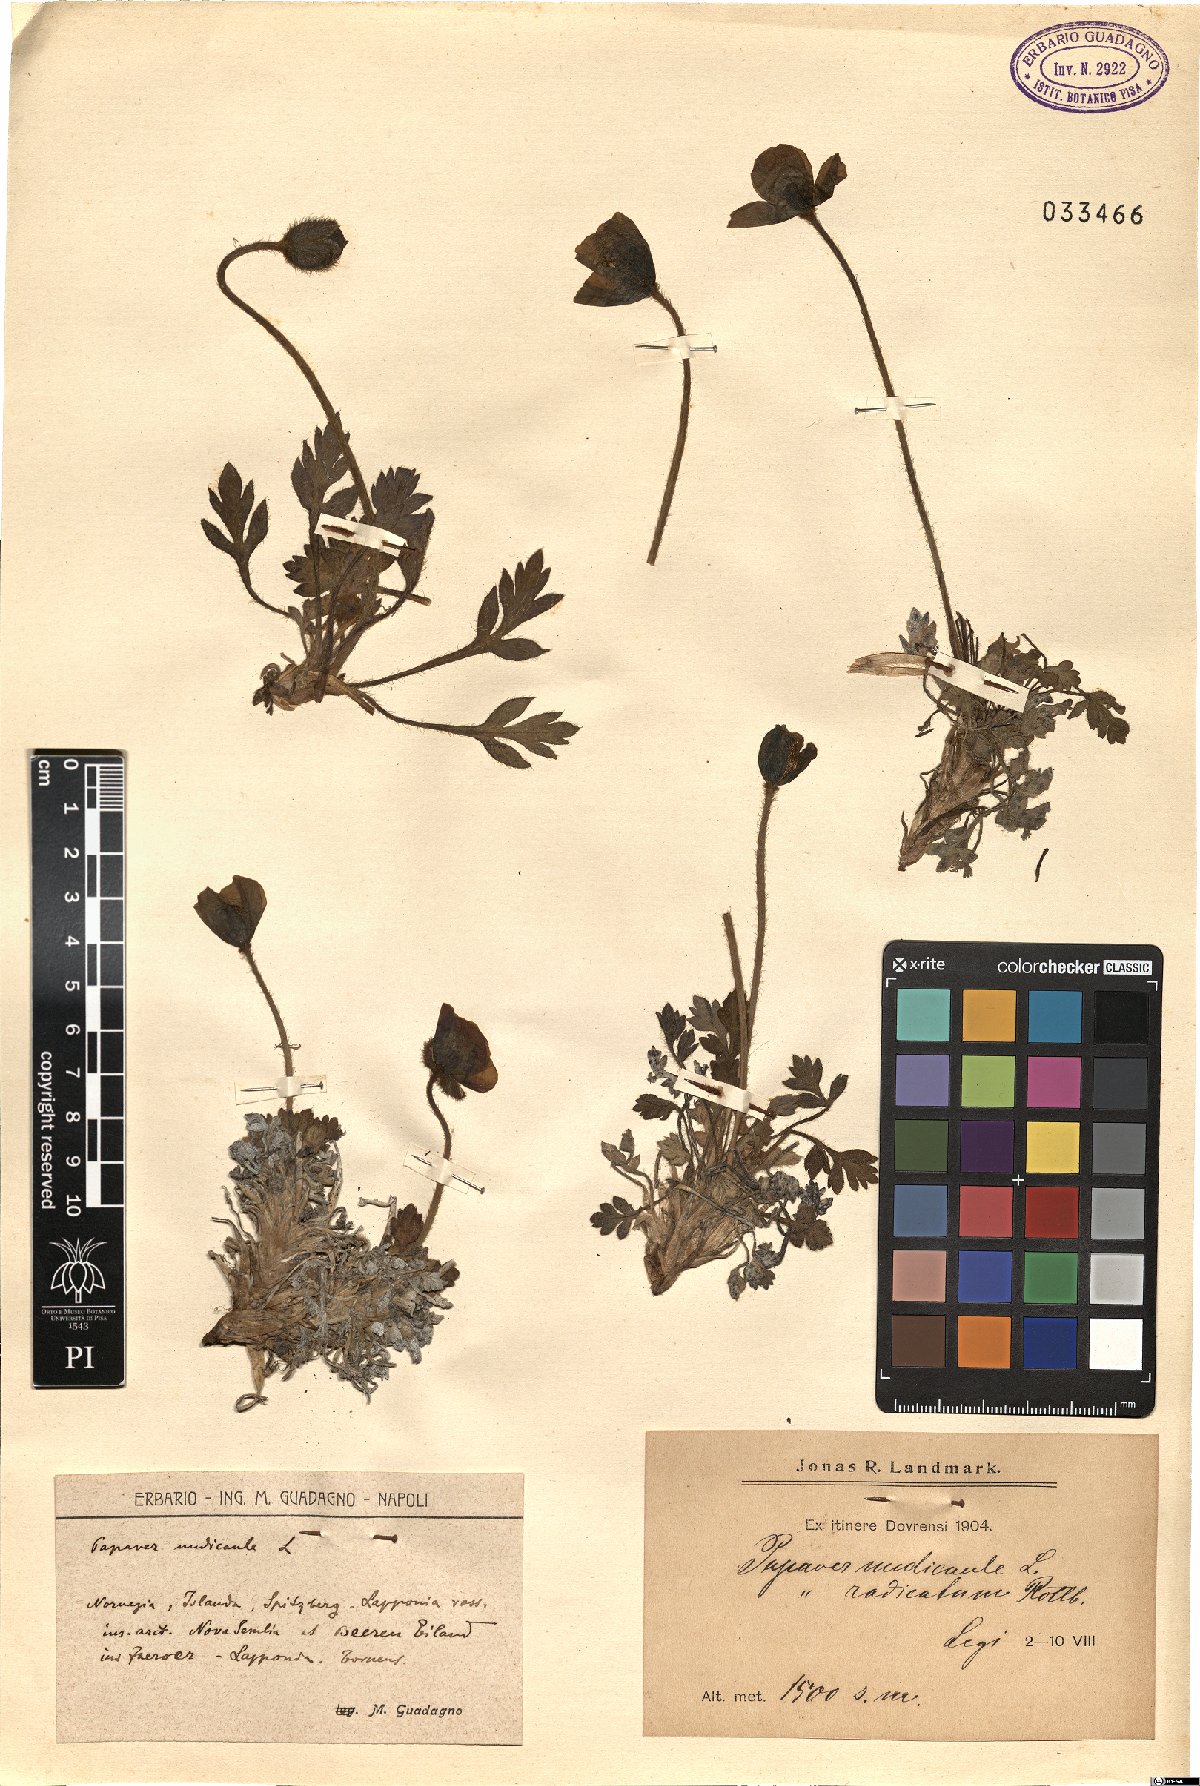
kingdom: Plantae
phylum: Tracheophyta
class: Magnoliopsida
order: Ranunculales
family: Papaveraceae
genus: Papaver
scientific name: Papaver nudicaule
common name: Arctic poppy
